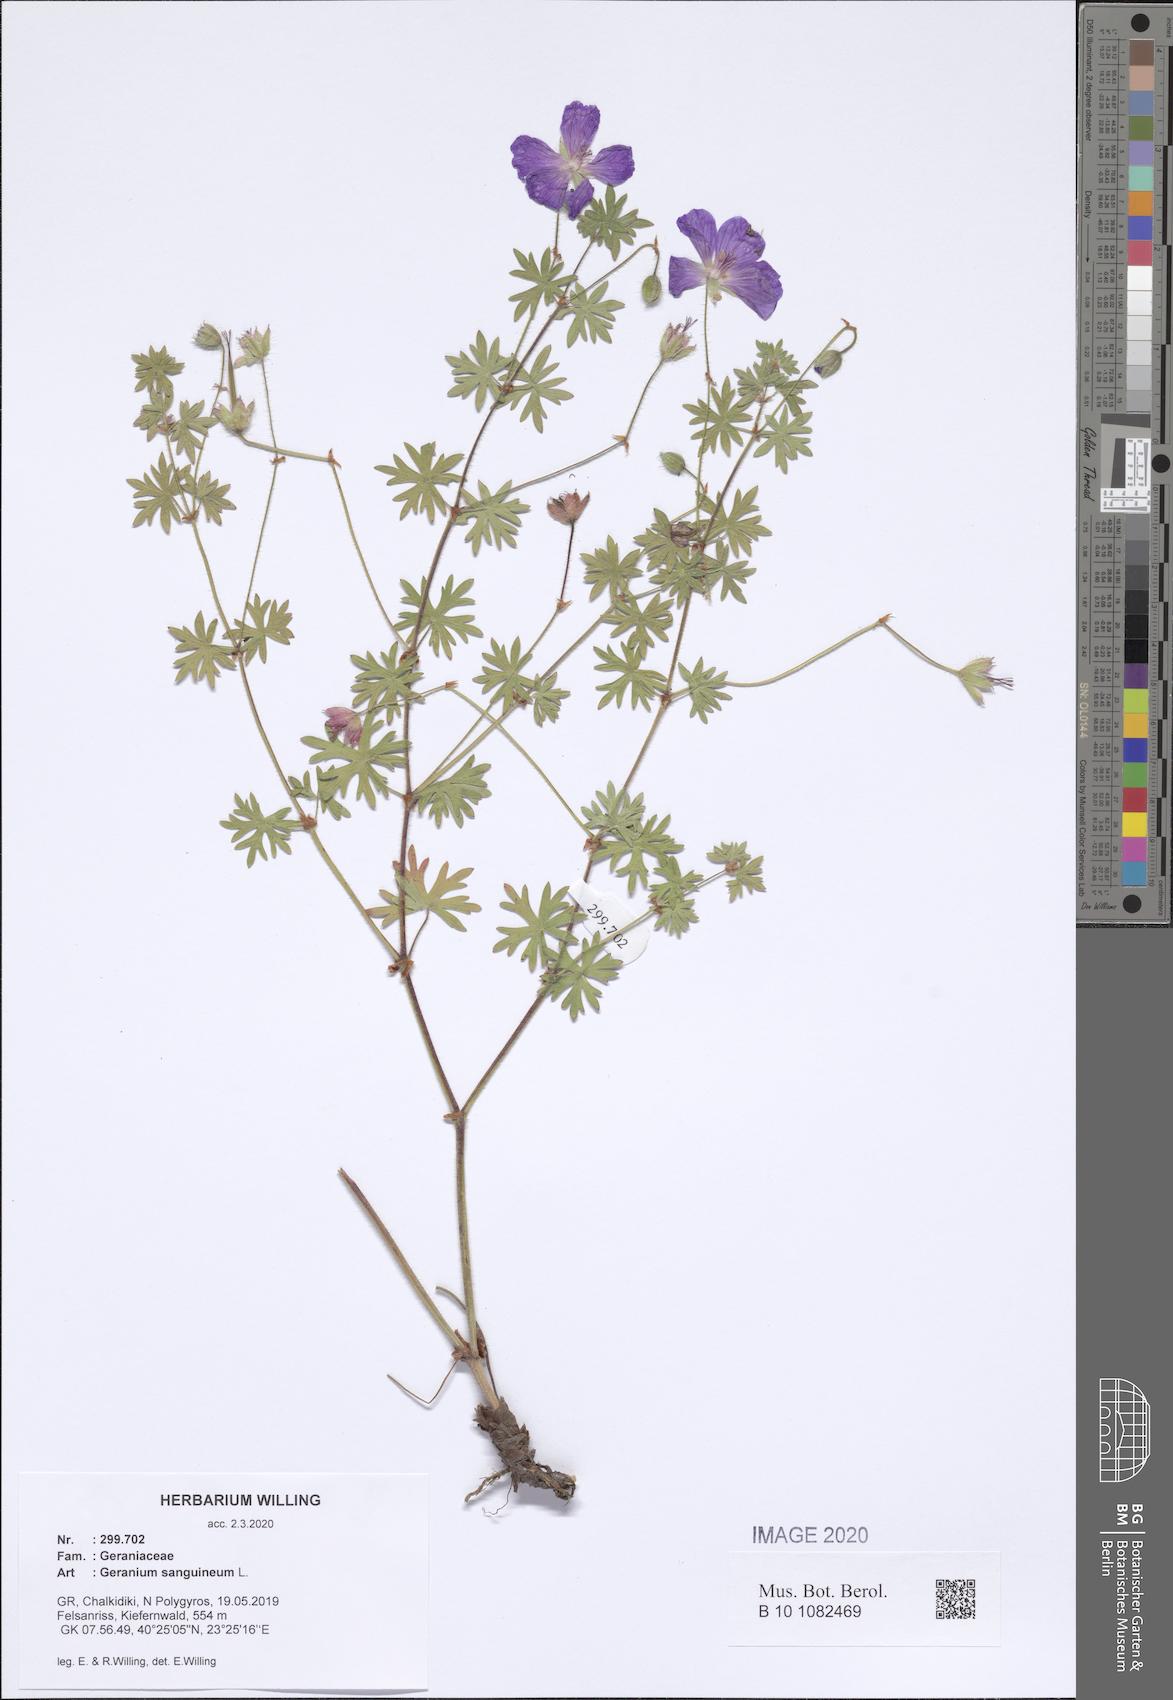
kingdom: Plantae
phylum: Tracheophyta
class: Magnoliopsida
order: Geraniales
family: Geraniaceae
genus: Geranium
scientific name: Geranium sanguineum
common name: Bloody crane's-bill
